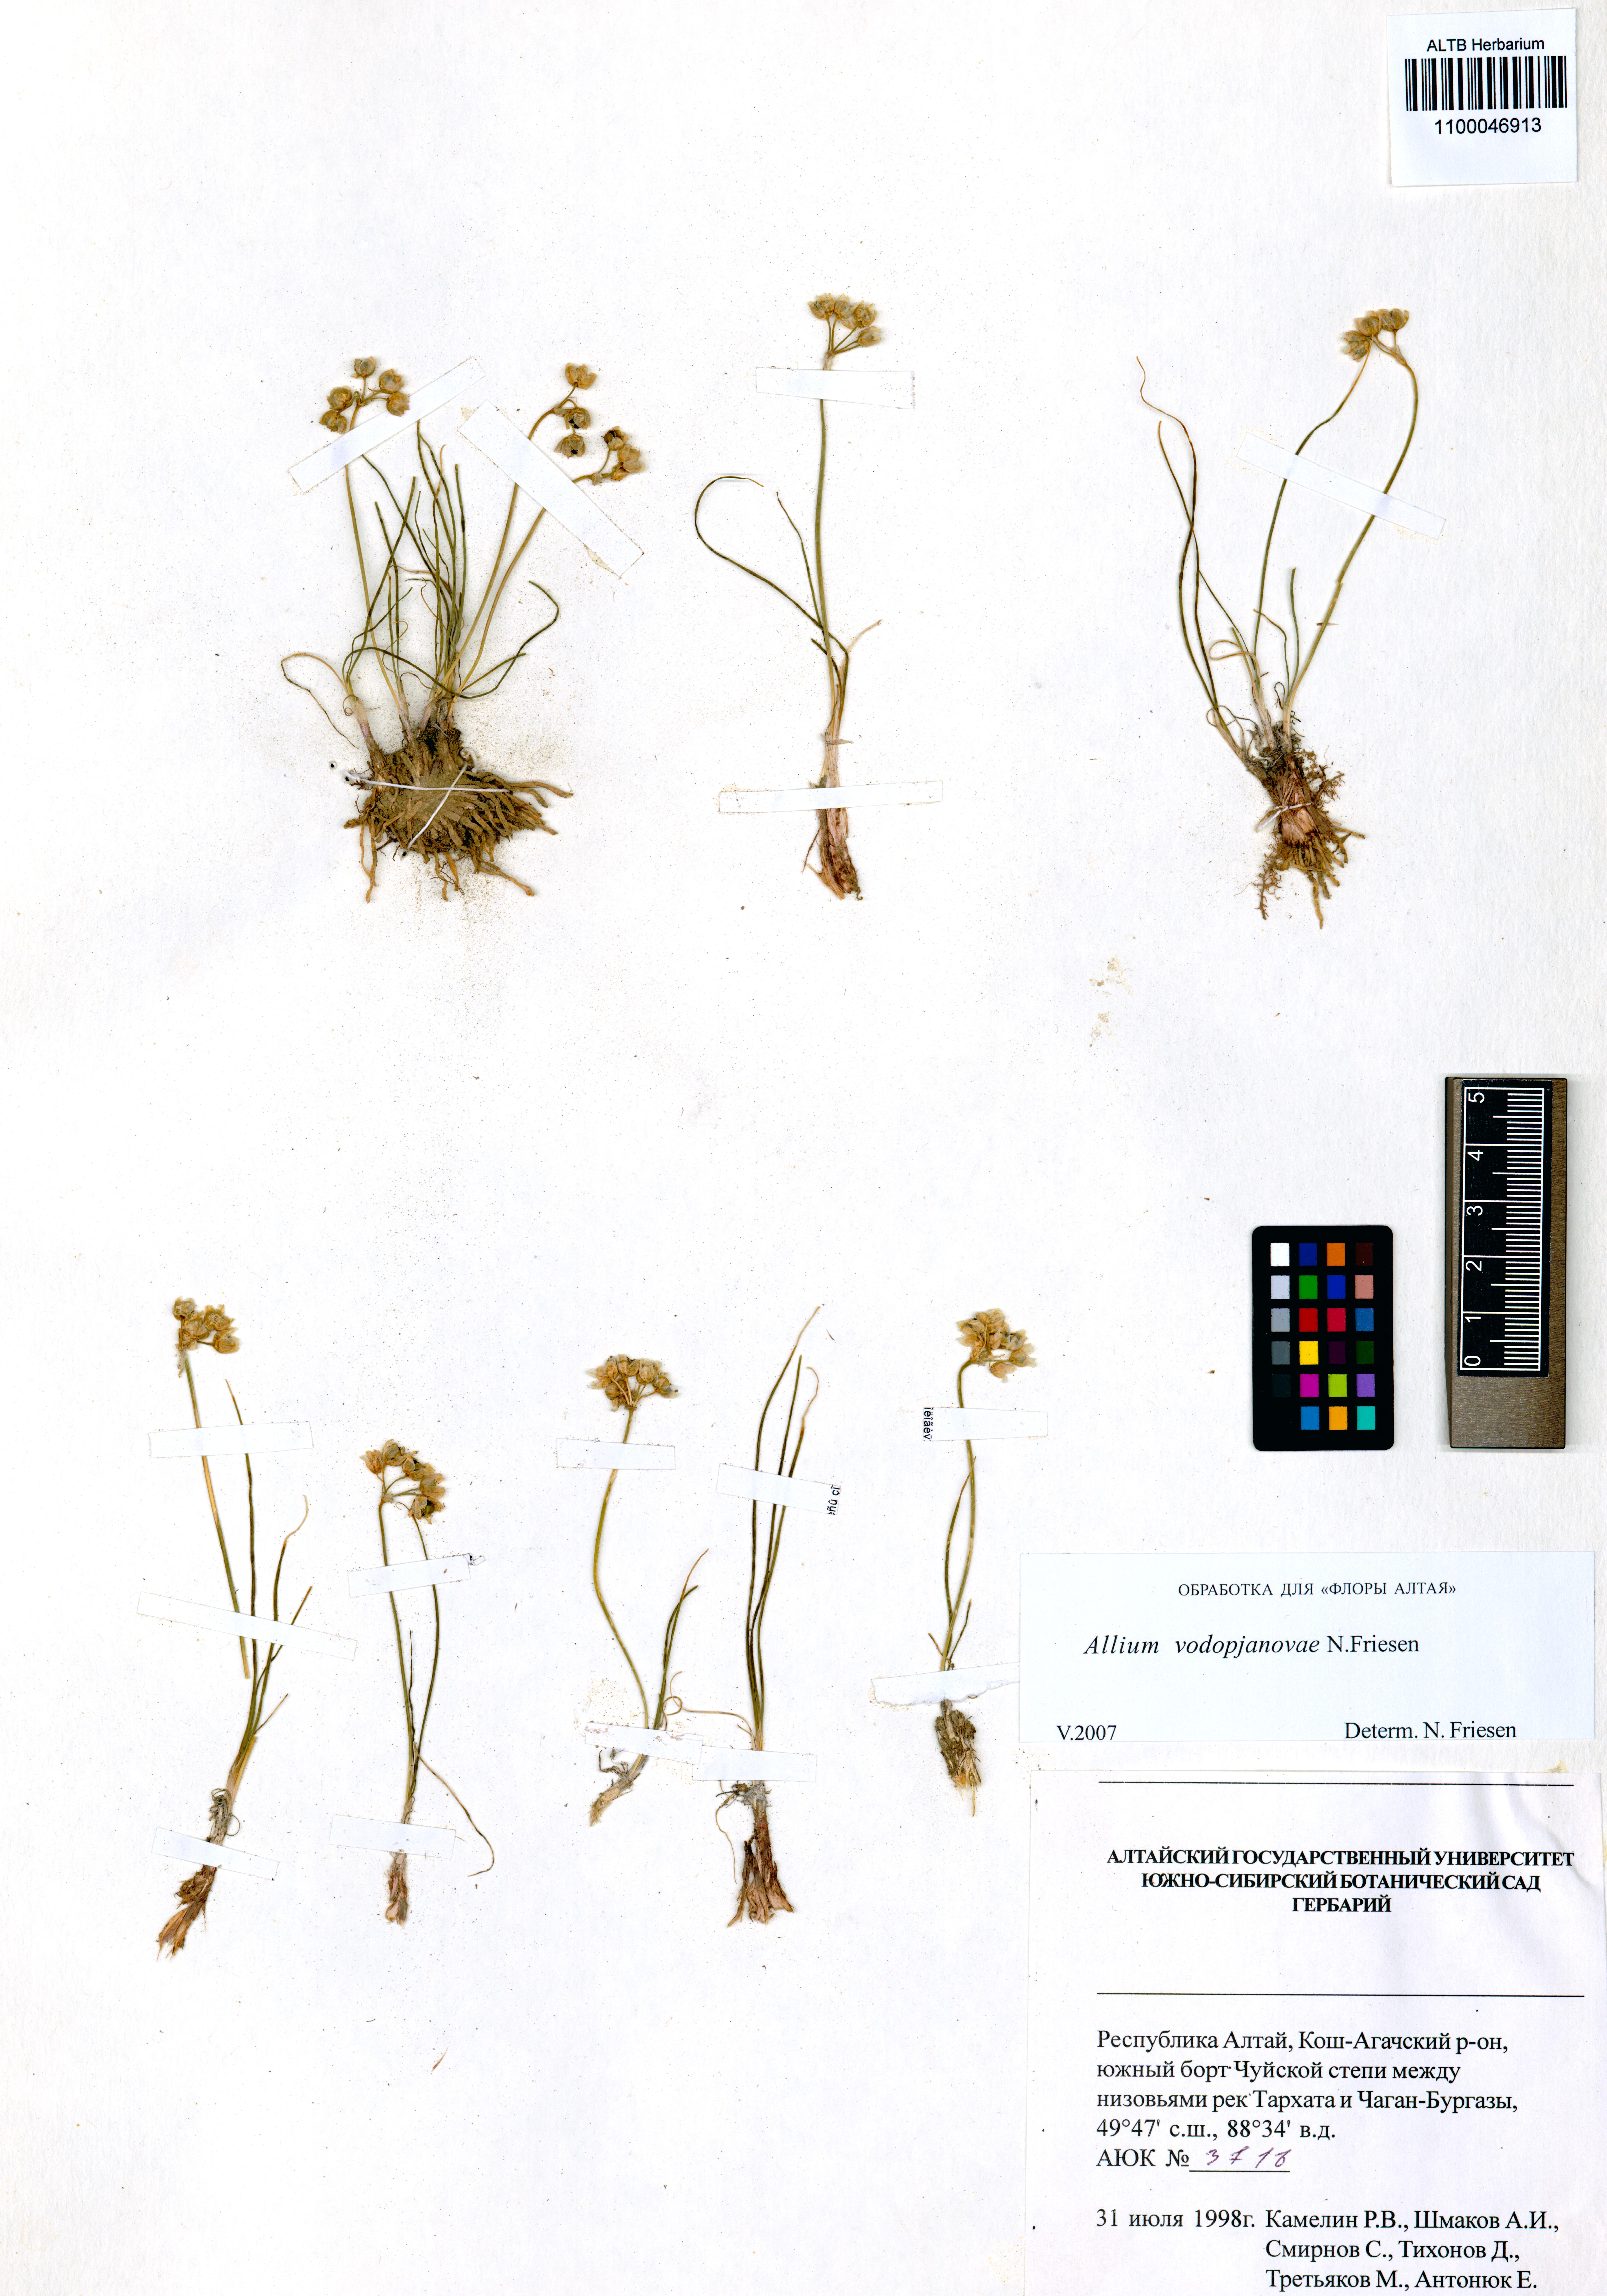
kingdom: Plantae
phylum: Tracheophyta
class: Liliopsida
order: Asparagales
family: Amaryllidaceae
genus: Allium
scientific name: Allium vodopjanovae
